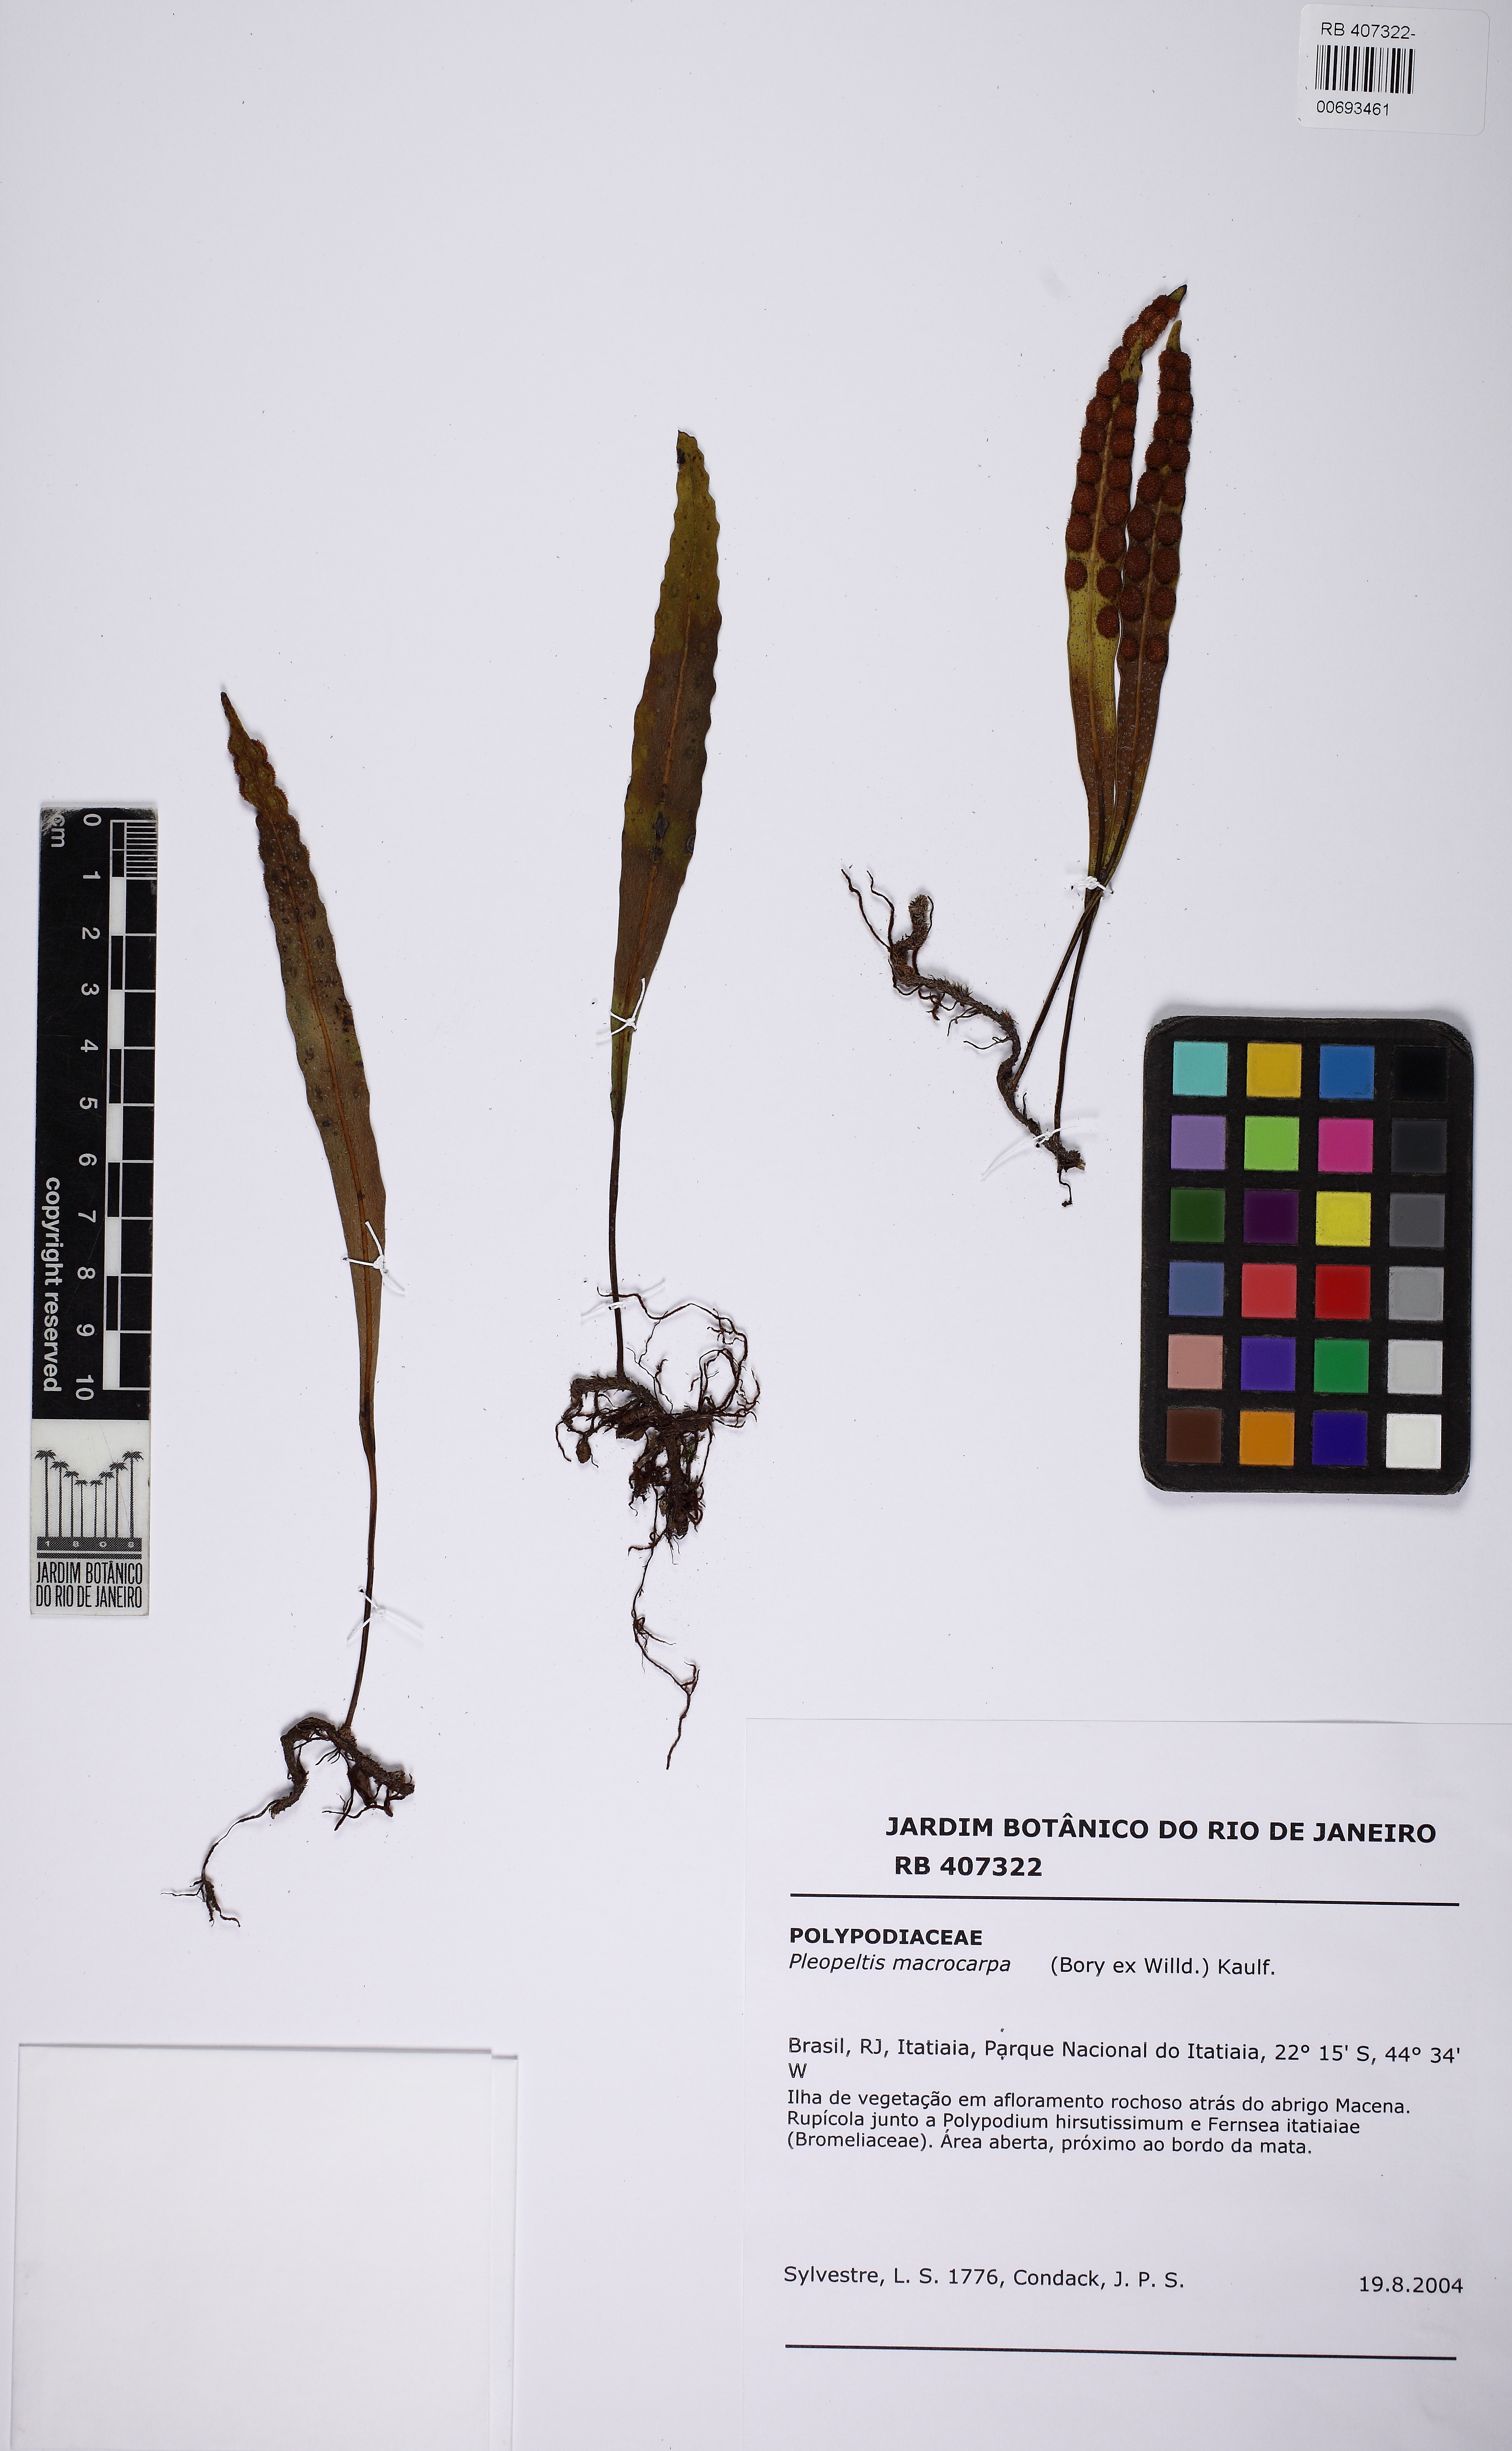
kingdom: Plantae
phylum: Tracheophyta
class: Polypodiopsida
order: Polypodiales
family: Polypodiaceae
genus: Pleopeltis
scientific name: Pleopeltis macrocarpa
